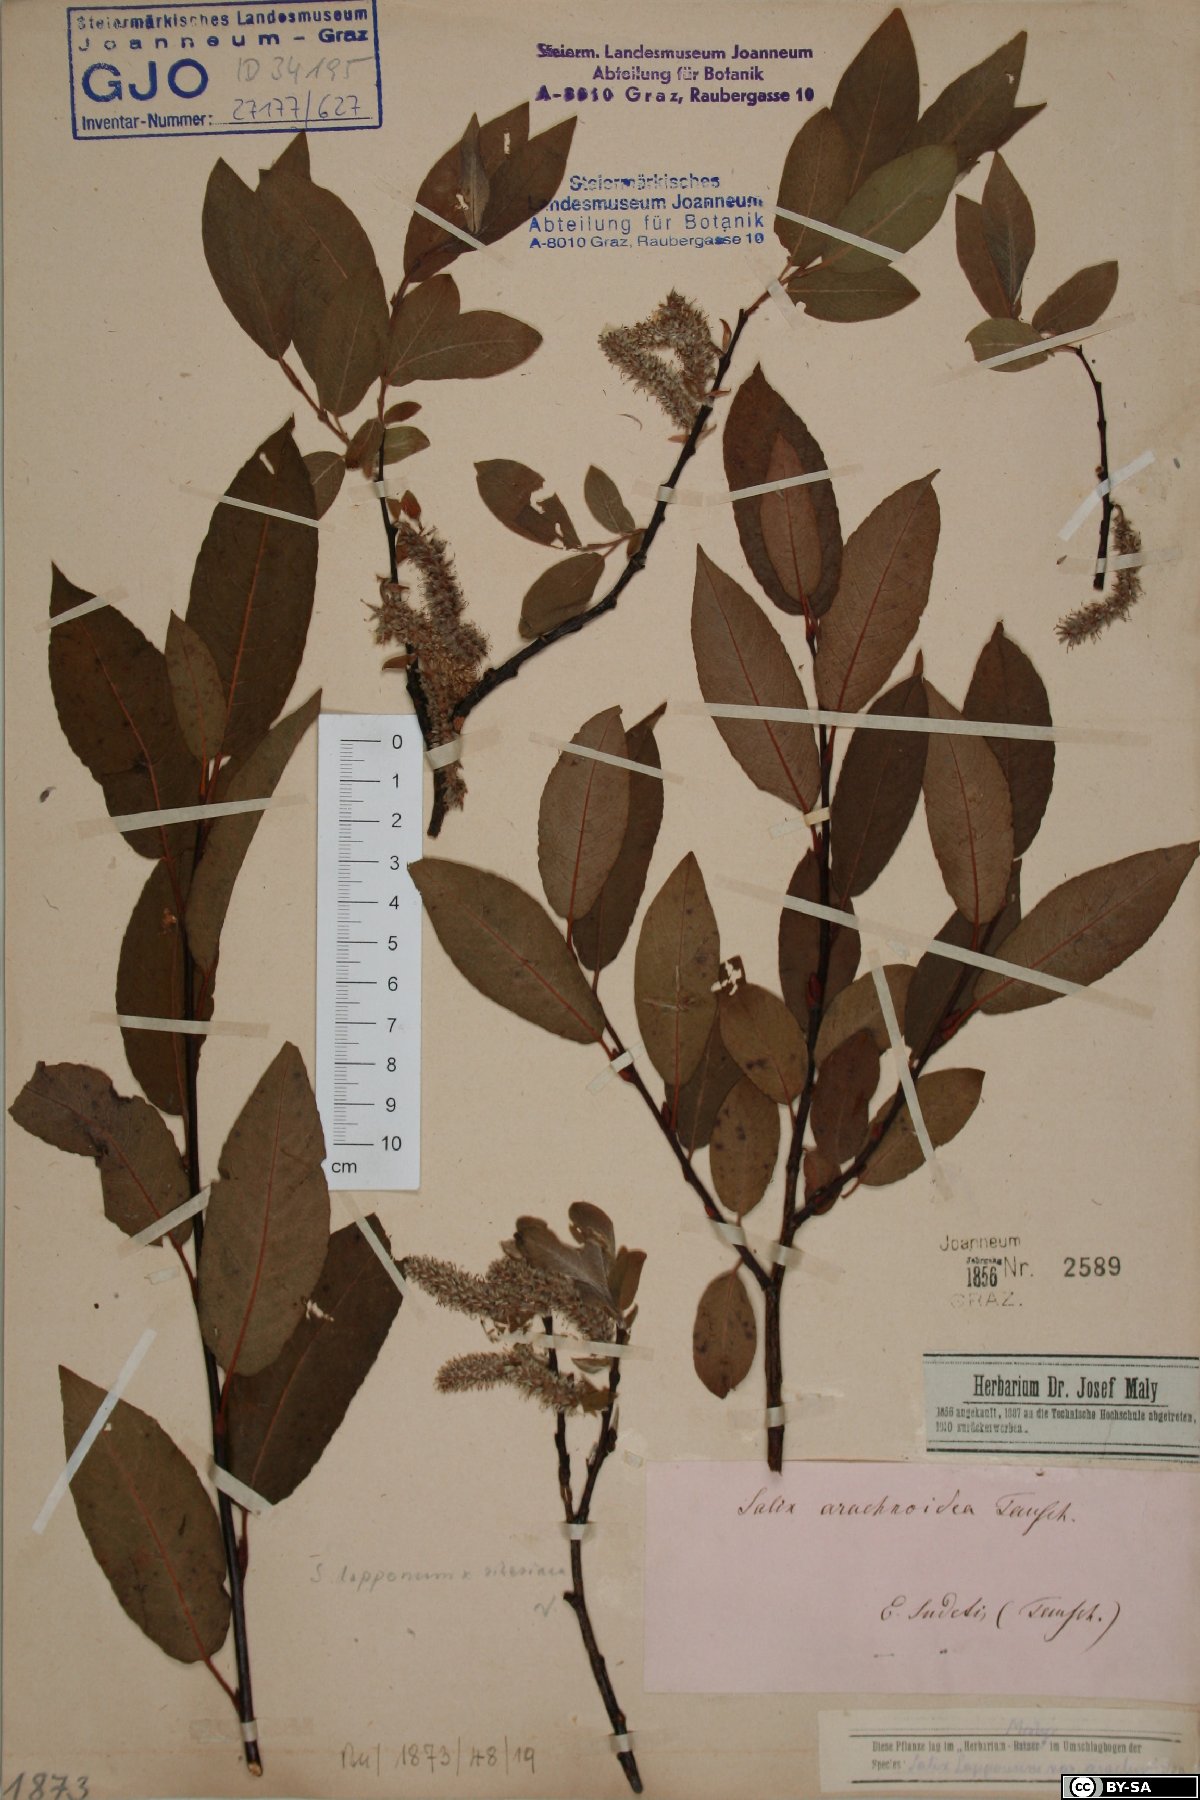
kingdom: Plantae
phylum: Tracheophyta
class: Magnoliopsida
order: Malpighiales
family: Salicaceae
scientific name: Salicaceae
